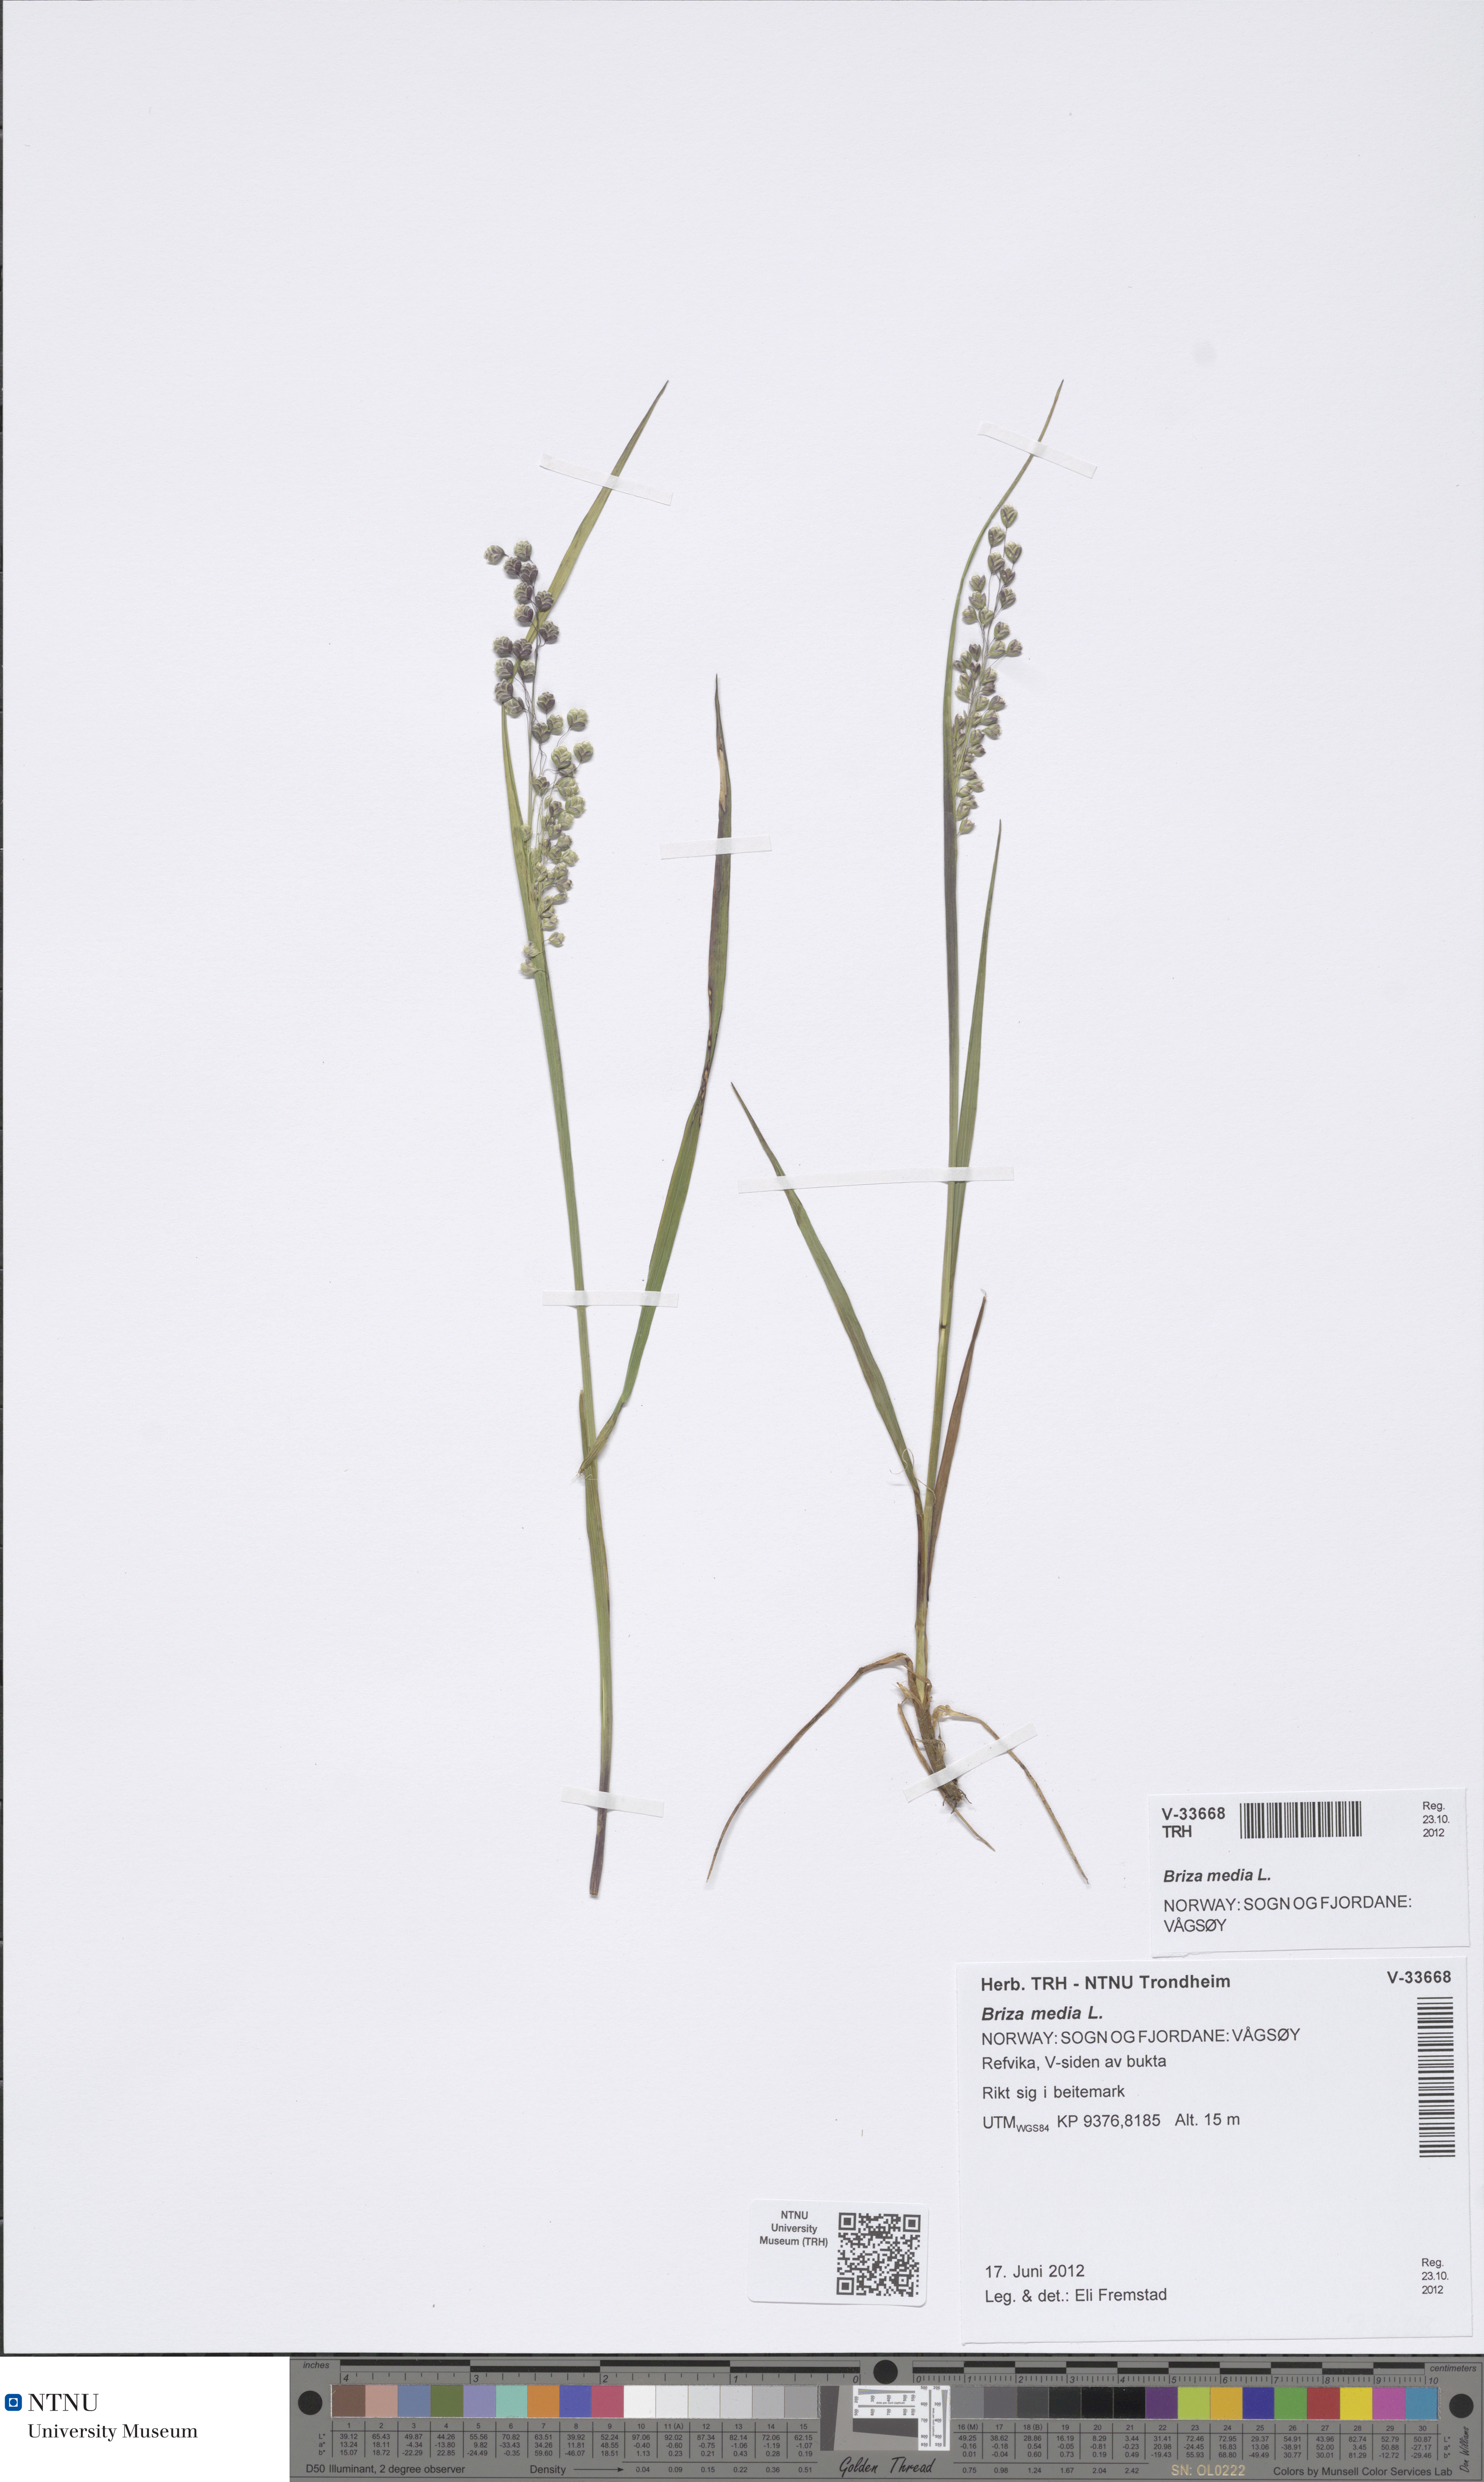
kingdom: Plantae
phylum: Tracheophyta
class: Liliopsida
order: Poales
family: Poaceae
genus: Briza
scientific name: Briza media
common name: Quaking grass
